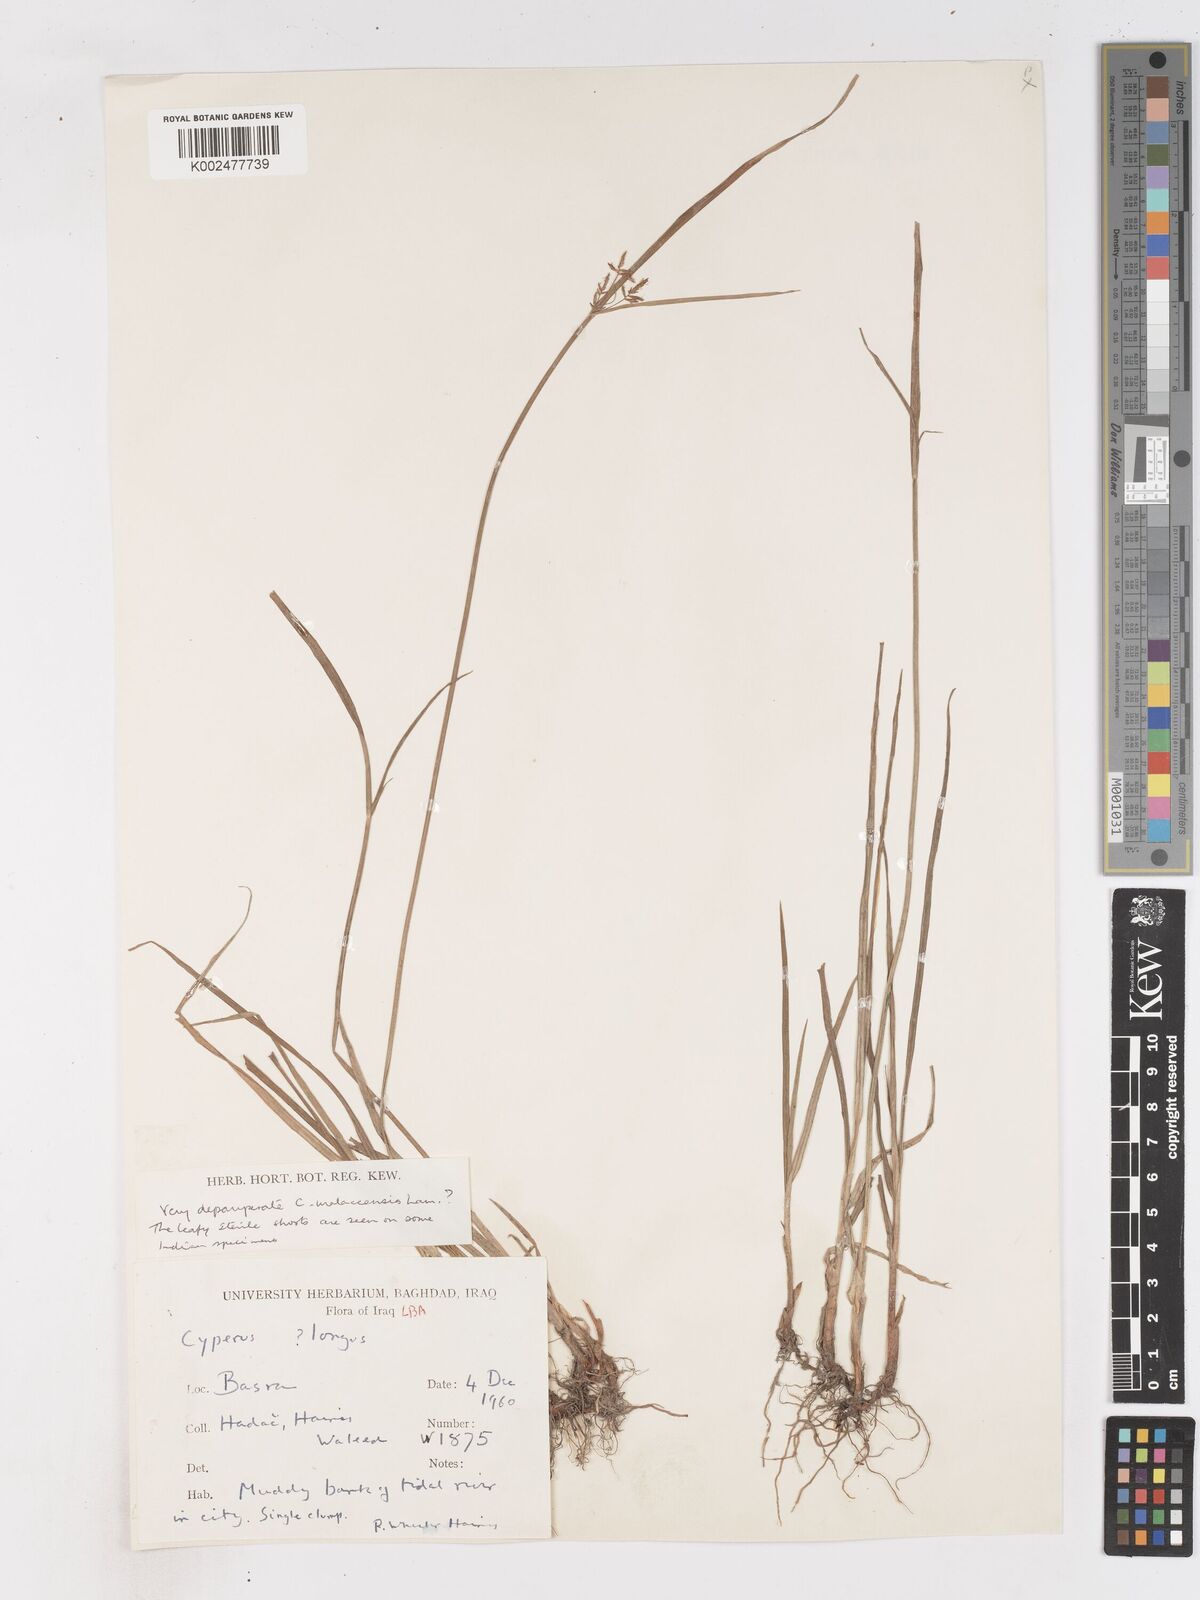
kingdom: Plantae
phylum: Tracheophyta
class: Liliopsida
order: Poales
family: Cyperaceae
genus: Cyperus
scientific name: Cyperus malaccensis
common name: Shichito matgrass
